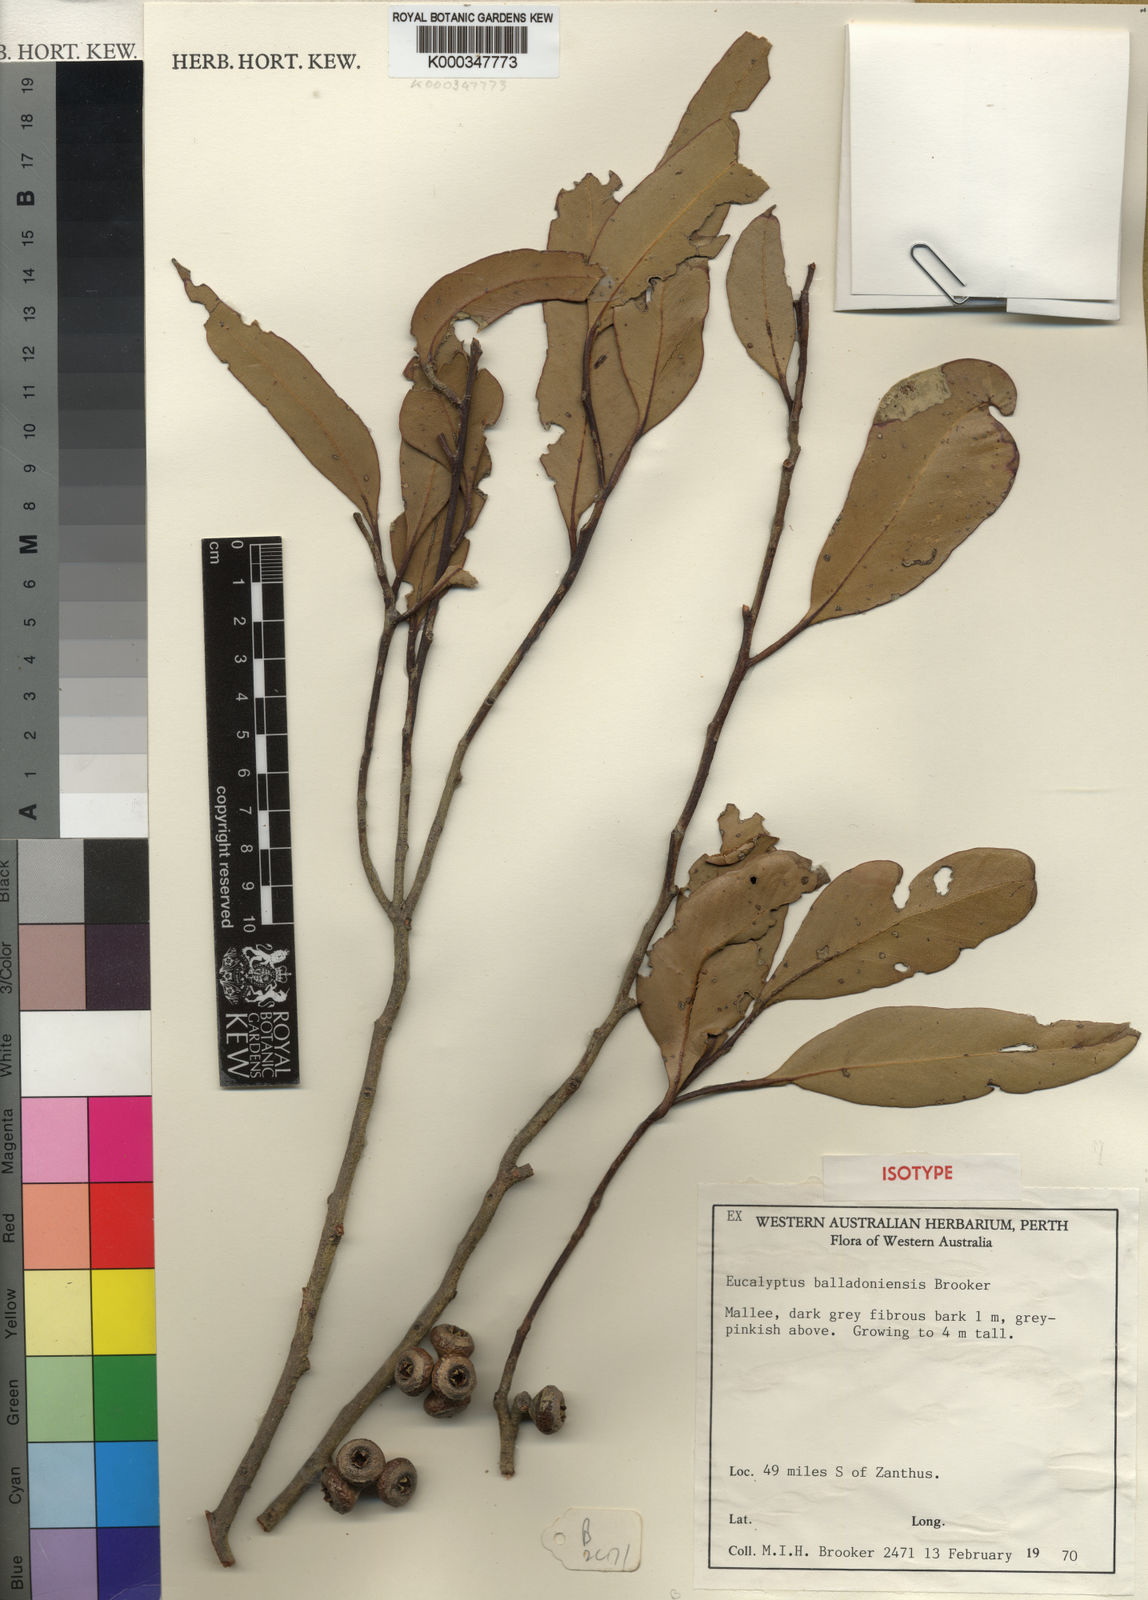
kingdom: Plantae
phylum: Tracheophyta
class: Magnoliopsida
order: Myrtales
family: Myrtaceae
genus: Eucalyptus
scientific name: Eucalyptus balladoniensis
